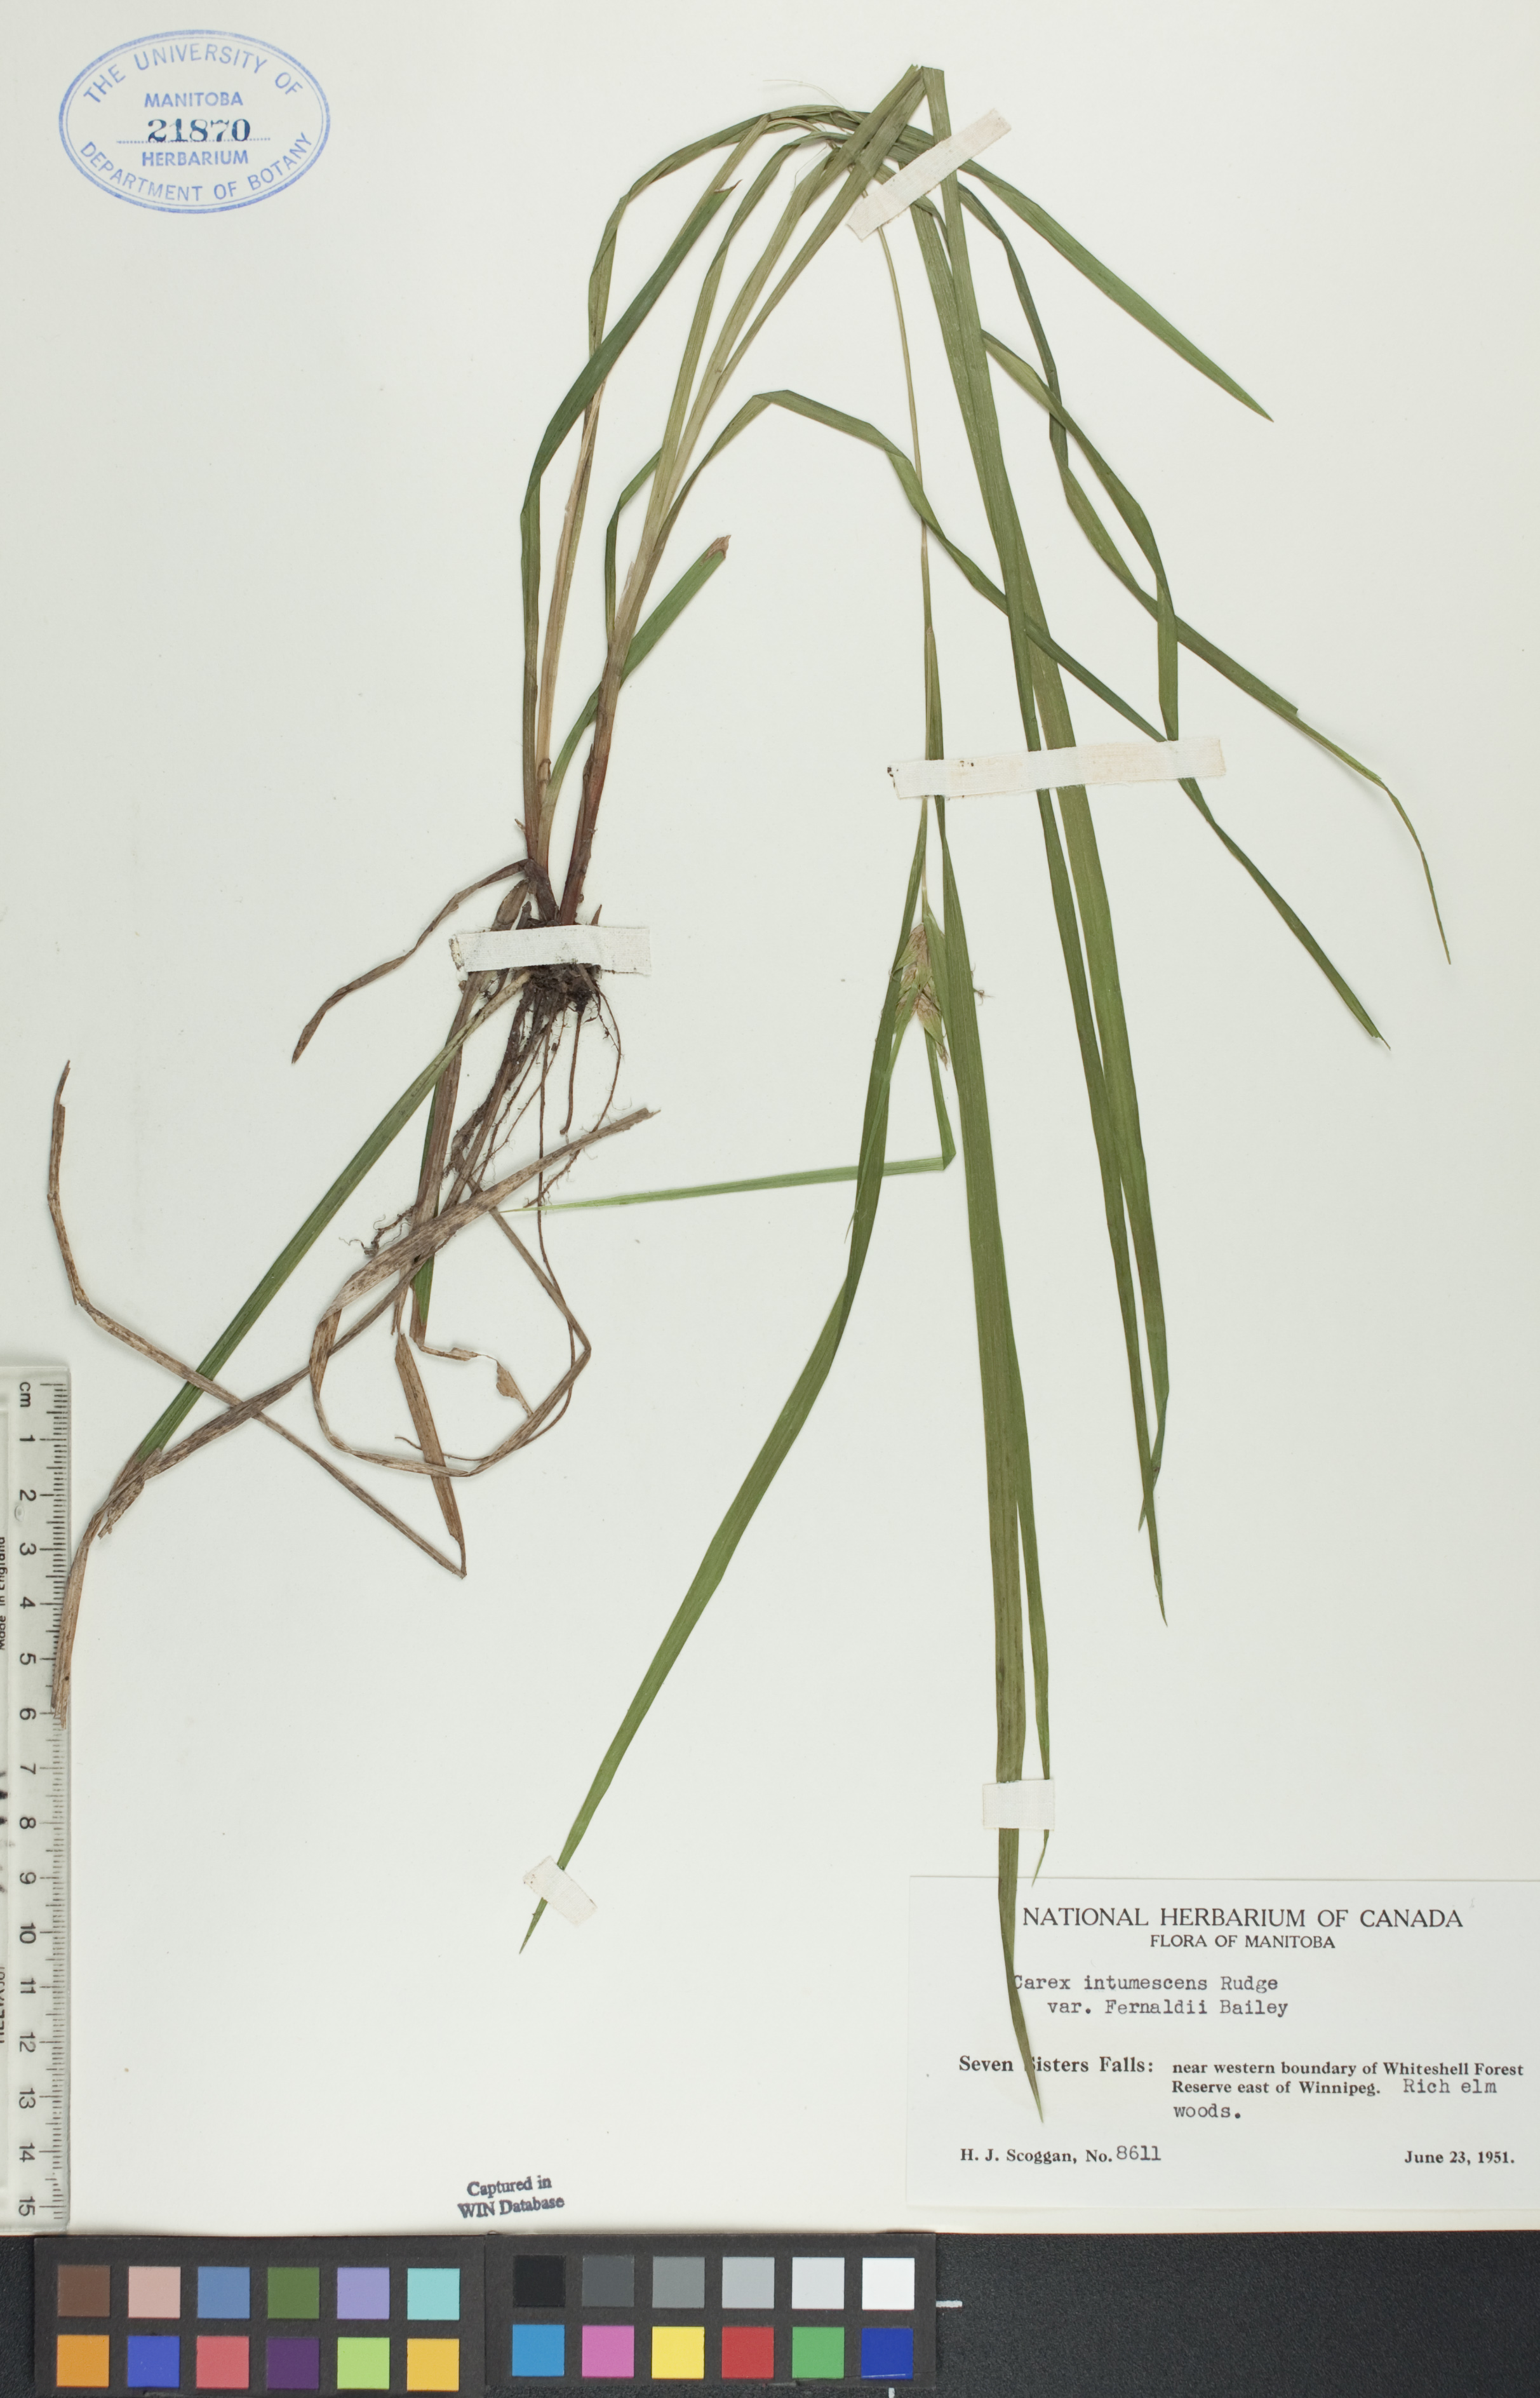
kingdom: Plantae
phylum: Tracheophyta
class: Liliopsida
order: Poales
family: Cyperaceae
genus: Carex
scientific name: Carex intumescens
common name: Greater bladder sedge
